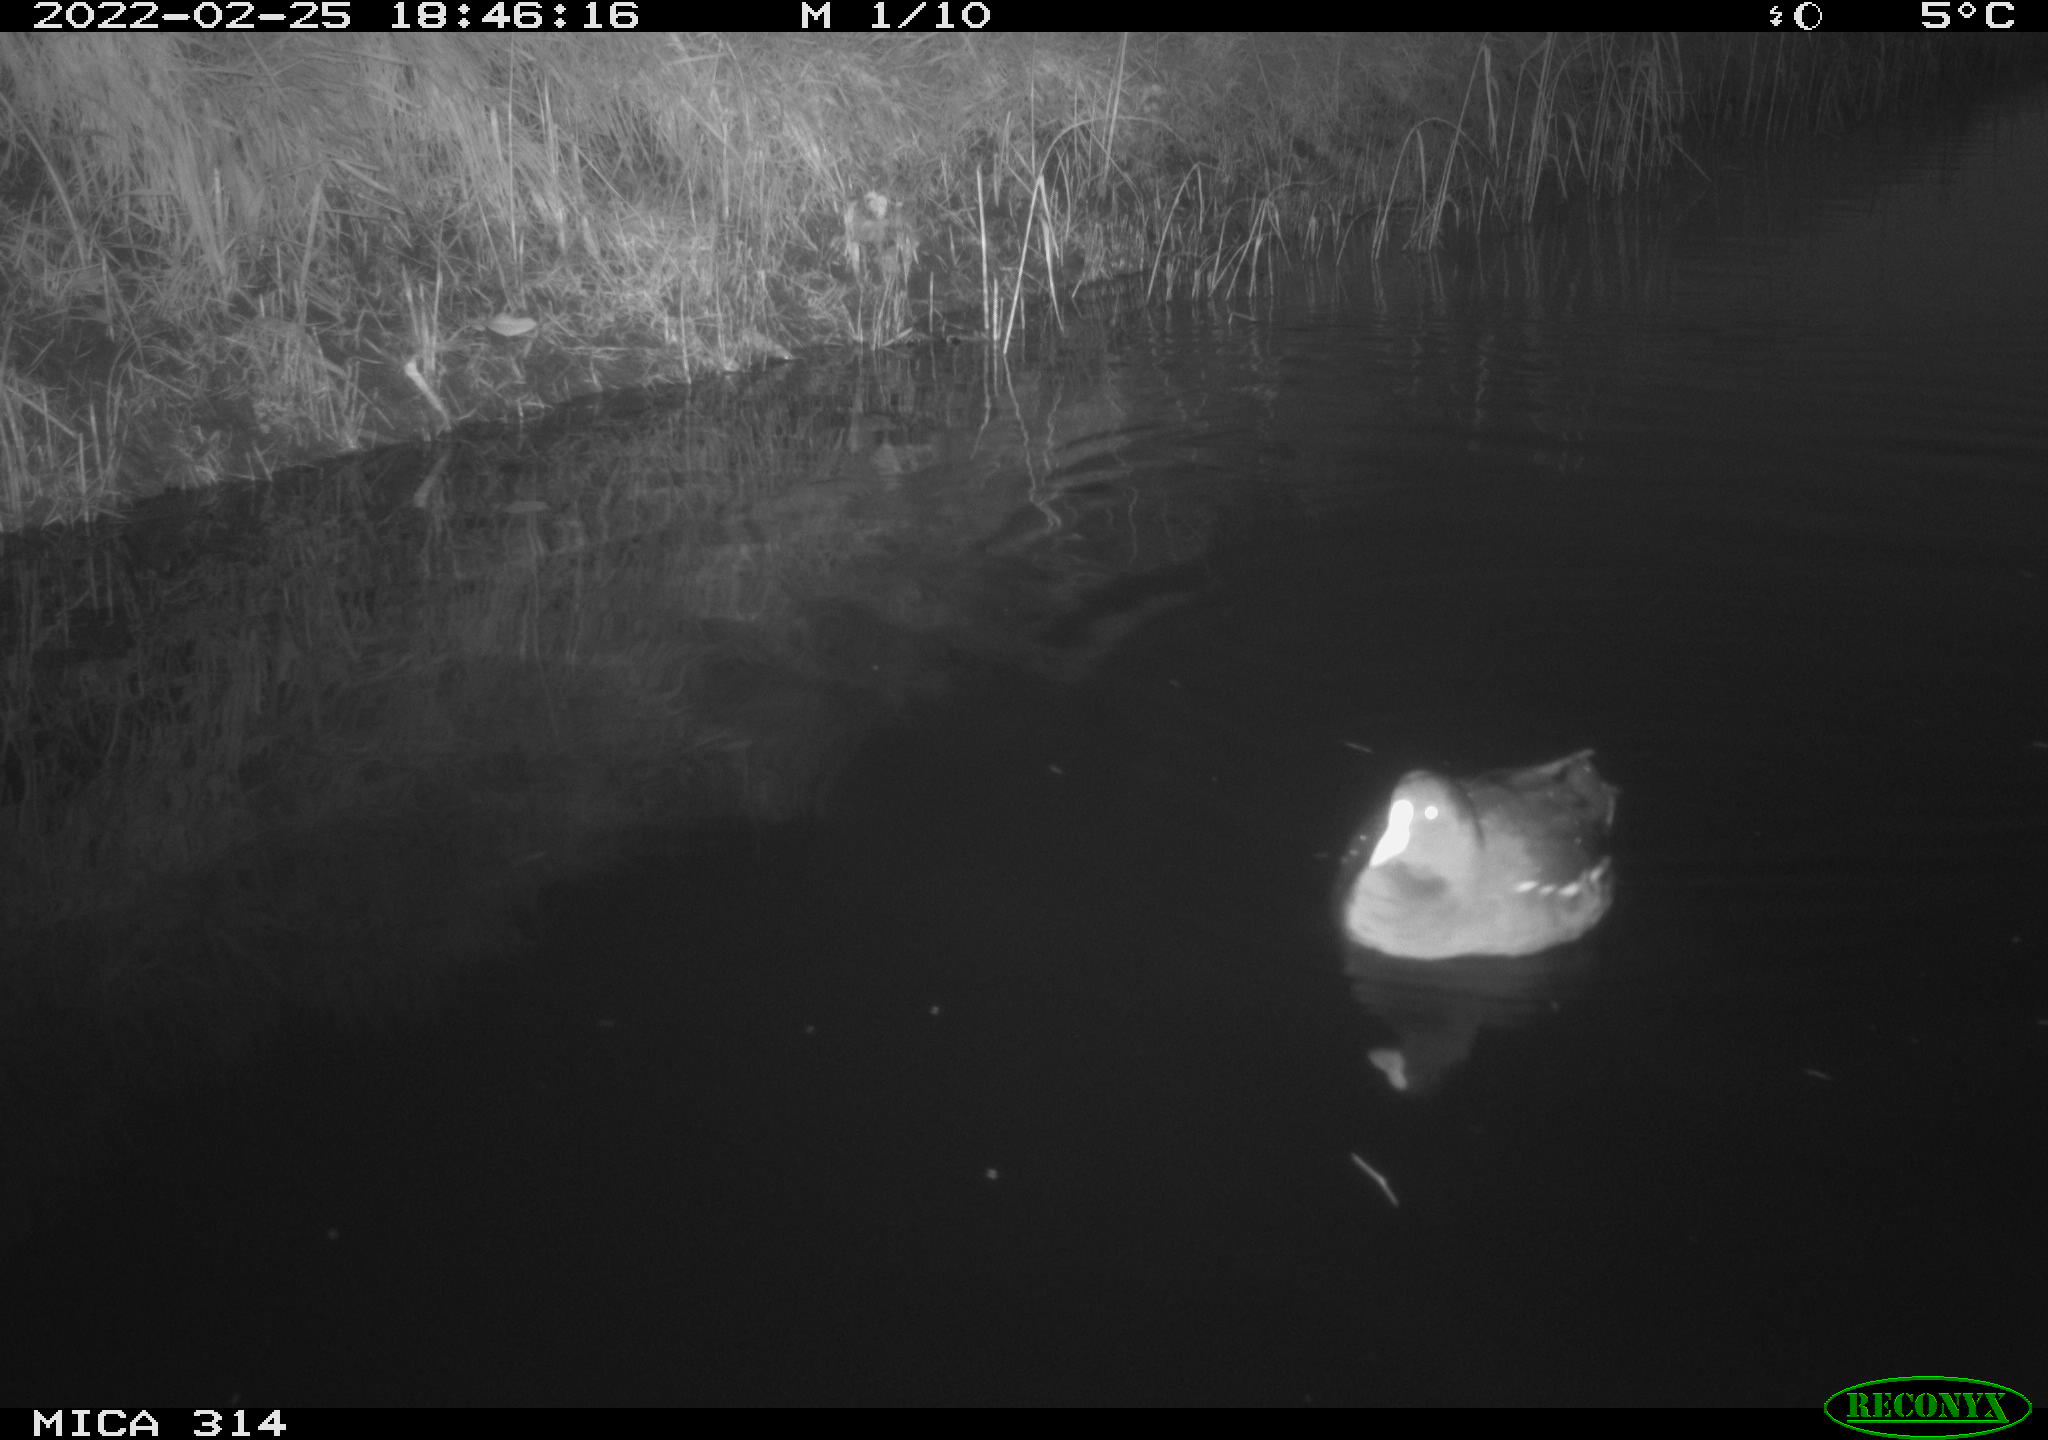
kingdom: Animalia
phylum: Chordata
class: Aves
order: Gruiformes
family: Rallidae
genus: Gallinula
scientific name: Gallinula chloropus
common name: Common moorhen
